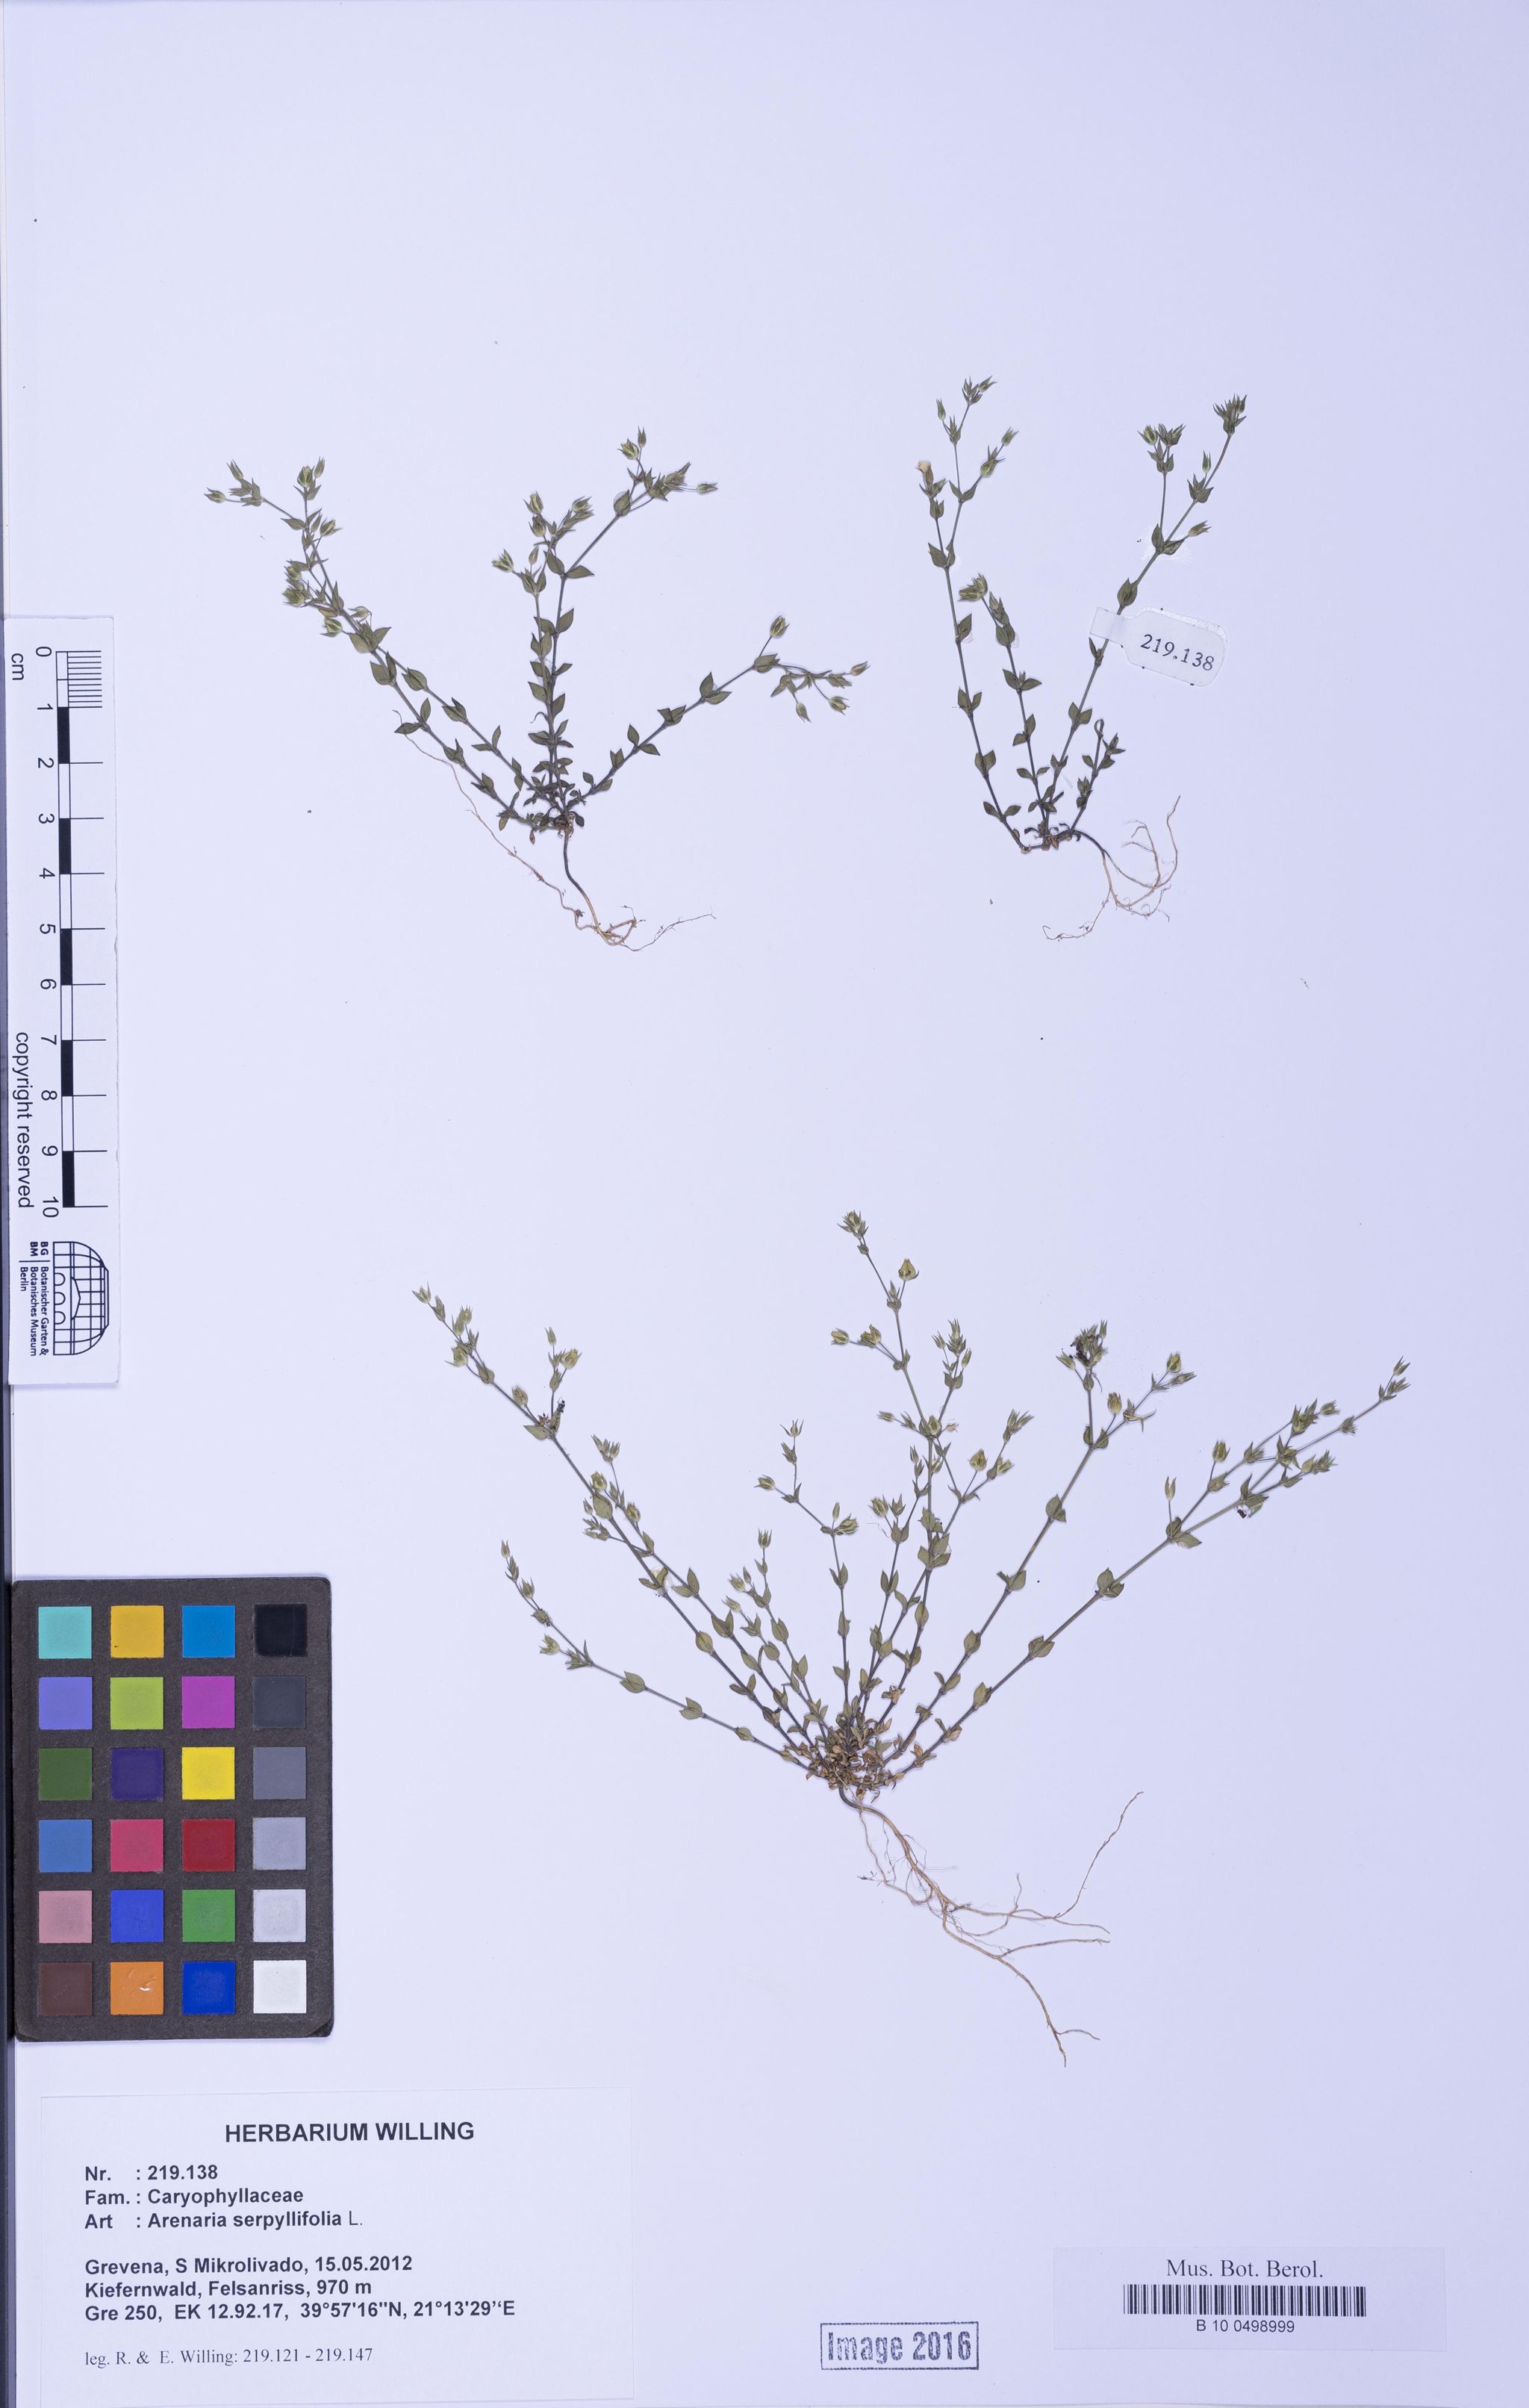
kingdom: Plantae
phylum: Tracheophyta
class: Magnoliopsida
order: Caryophyllales
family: Caryophyllaceae
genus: Arenaria
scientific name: Arenaria serpyllifolia
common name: Thyme-leaved sandwort
